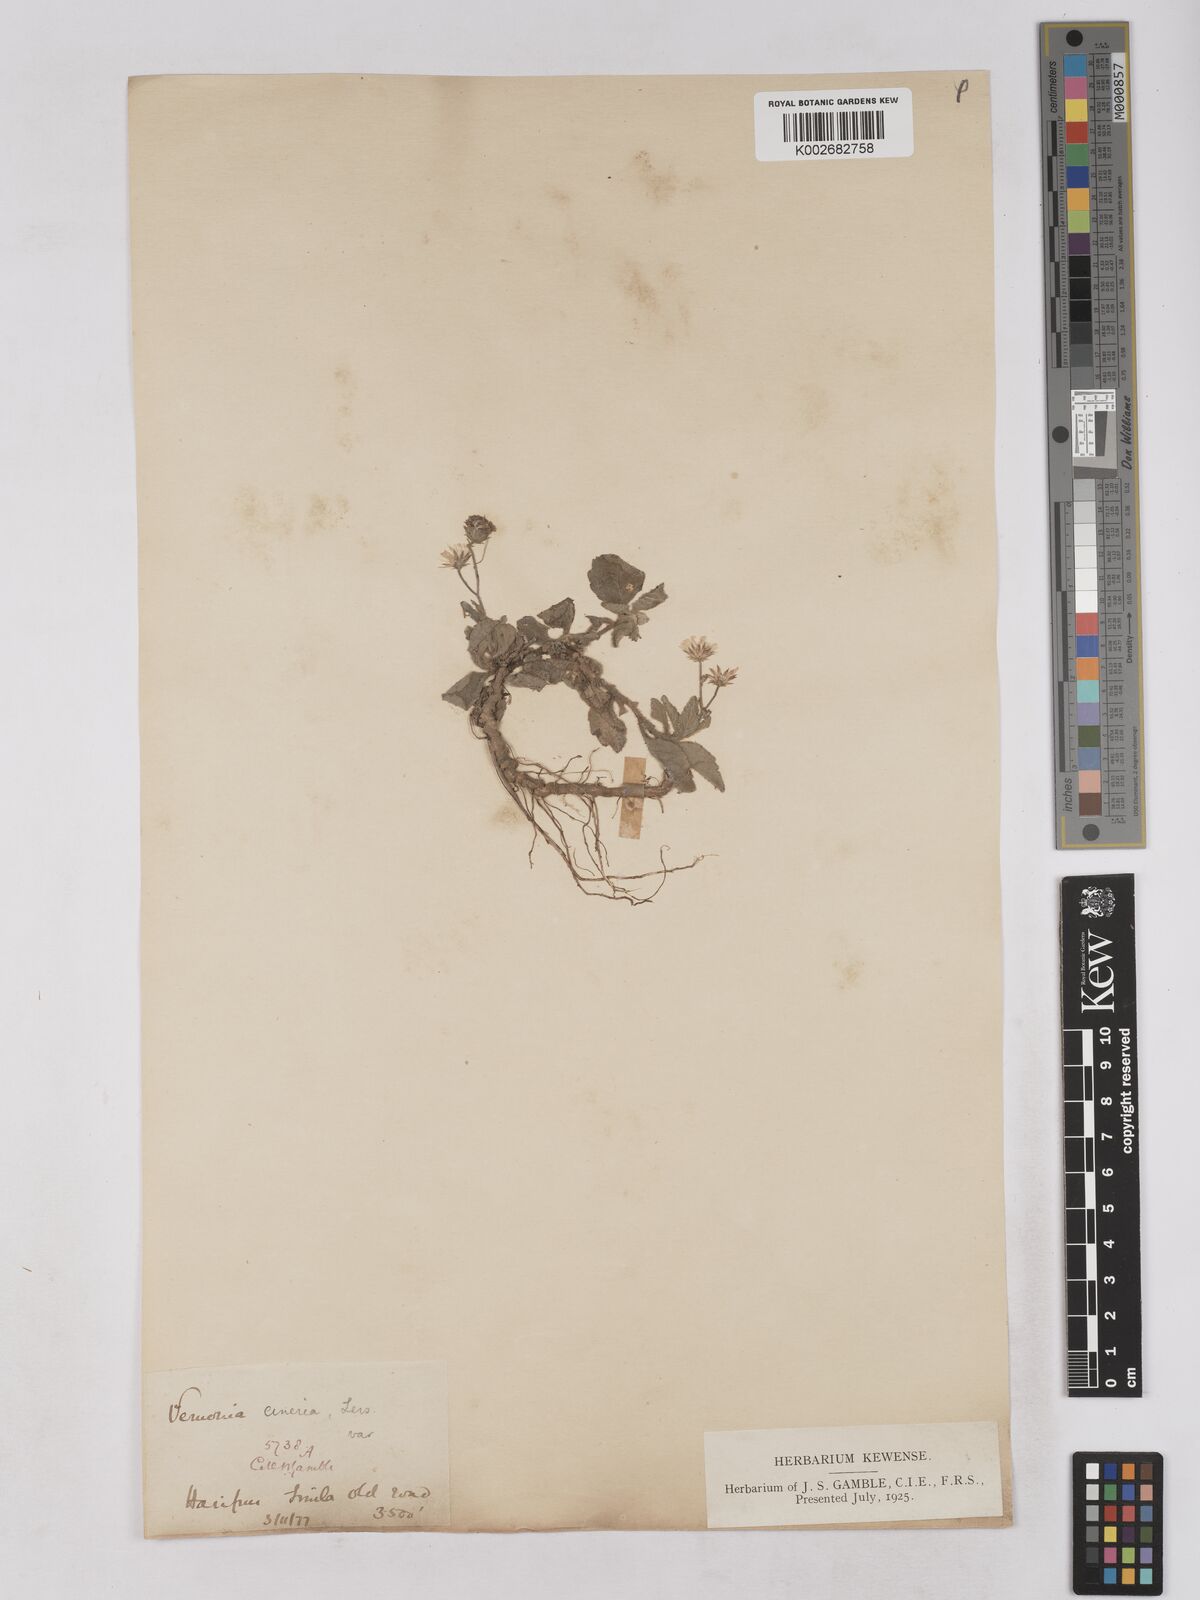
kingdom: Plantae
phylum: Tracheophyta
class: Magnoliopsida
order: Asterales
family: Asteraceae
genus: Cyanthillium
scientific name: Cyanthillium cinereum
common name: Little ironweed
